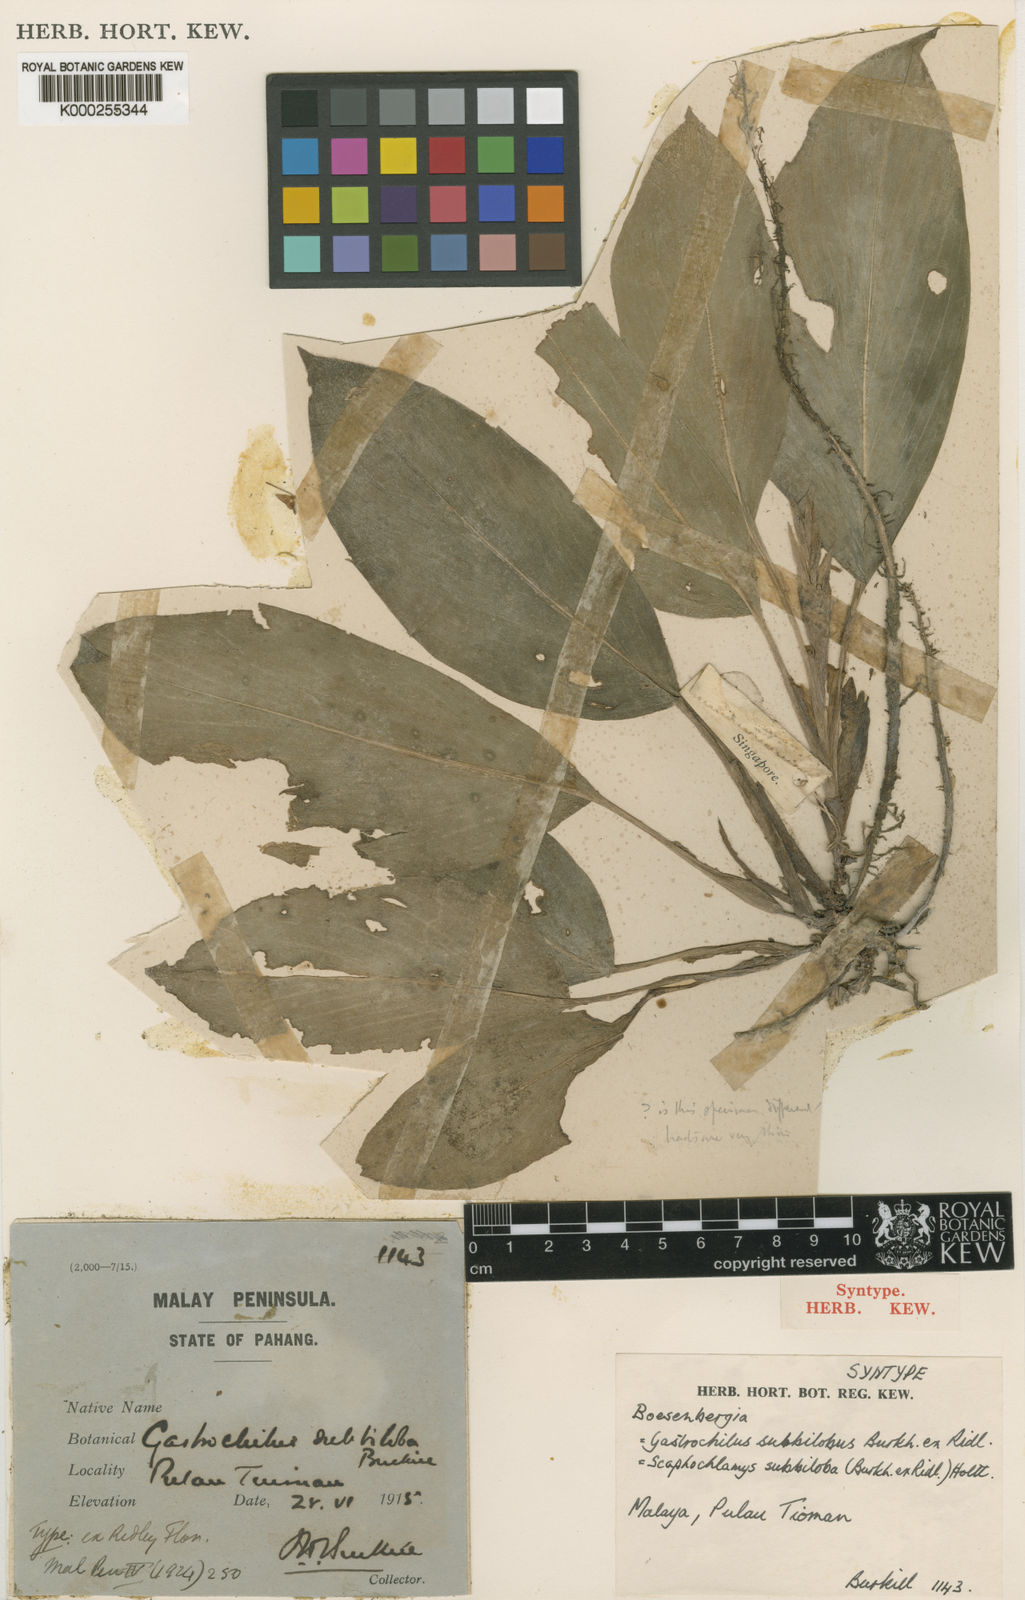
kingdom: Plantae
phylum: Tracheophyta
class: Liliopsida
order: Zingiberales
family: Zingiberaceae
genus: Scaphochlamys
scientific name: Scaphochlamys subbiloba
